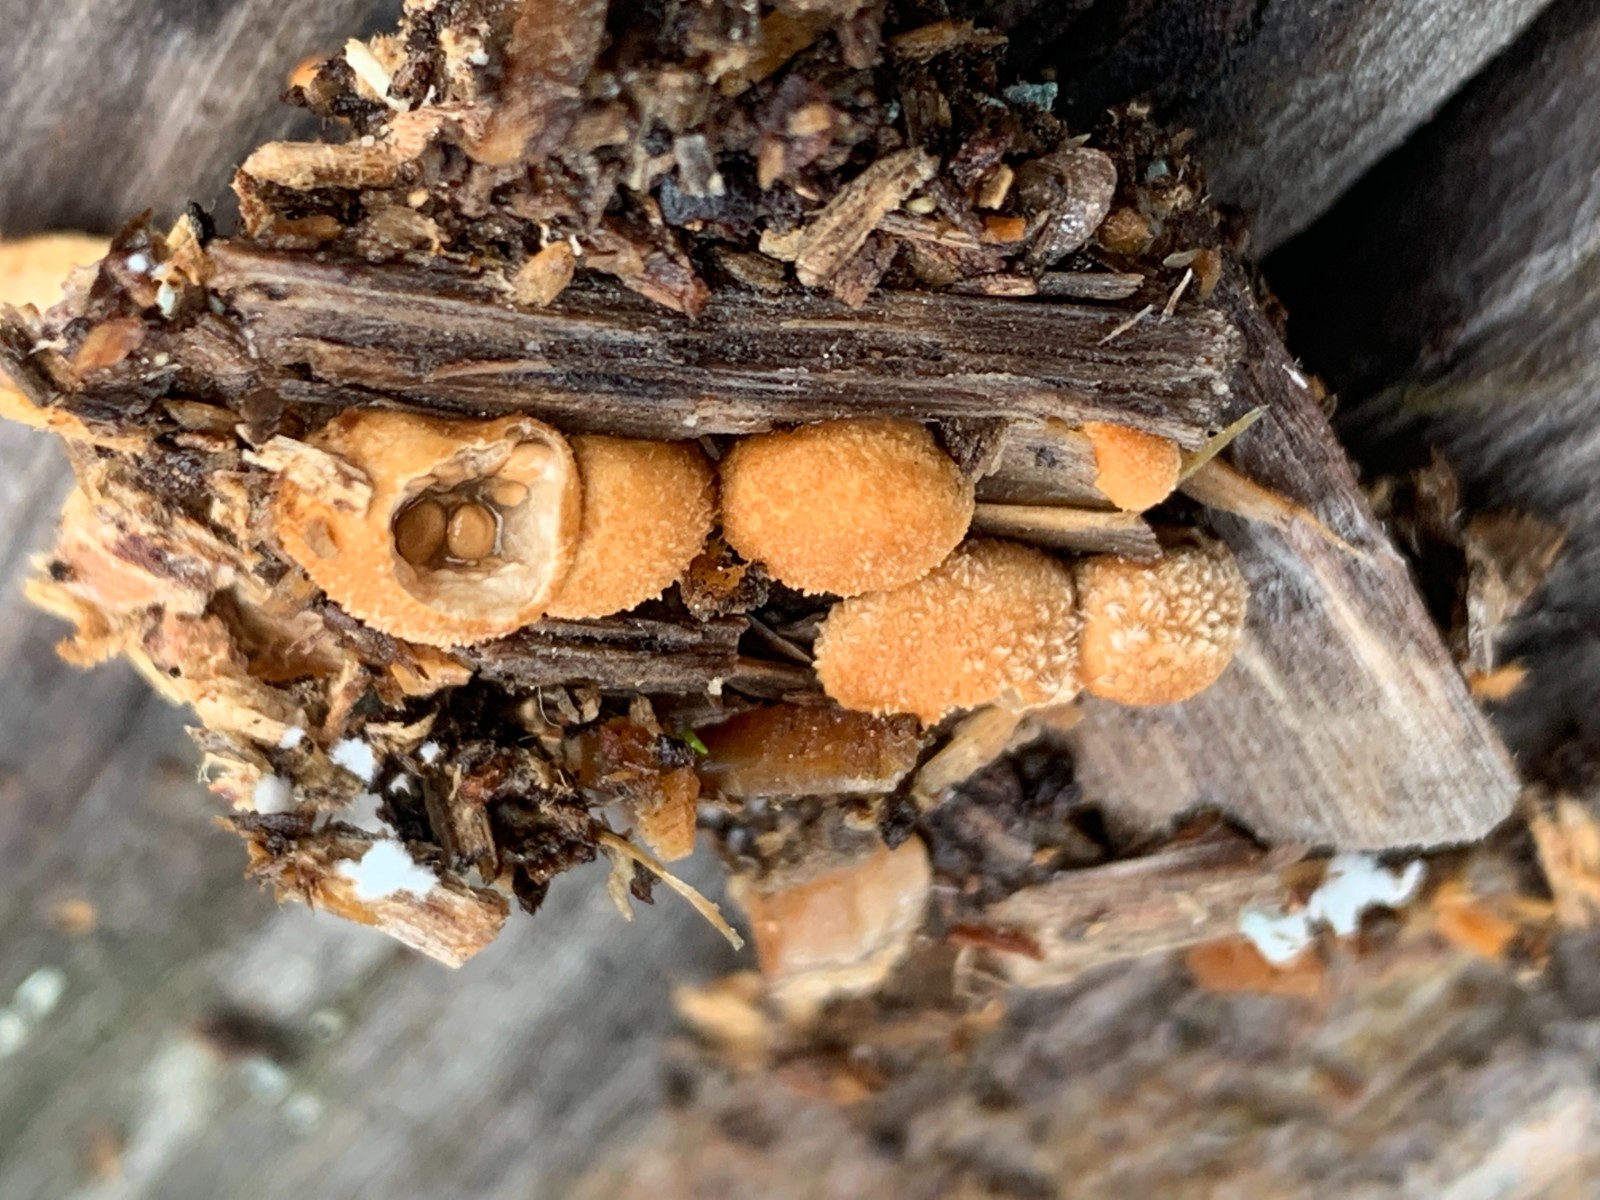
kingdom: Fungi
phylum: Basidiomycota
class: Agaricomycetes
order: Agaricales
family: Agaricaceae
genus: Nidularia
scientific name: Nidularia deformis
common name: pudesvamp
